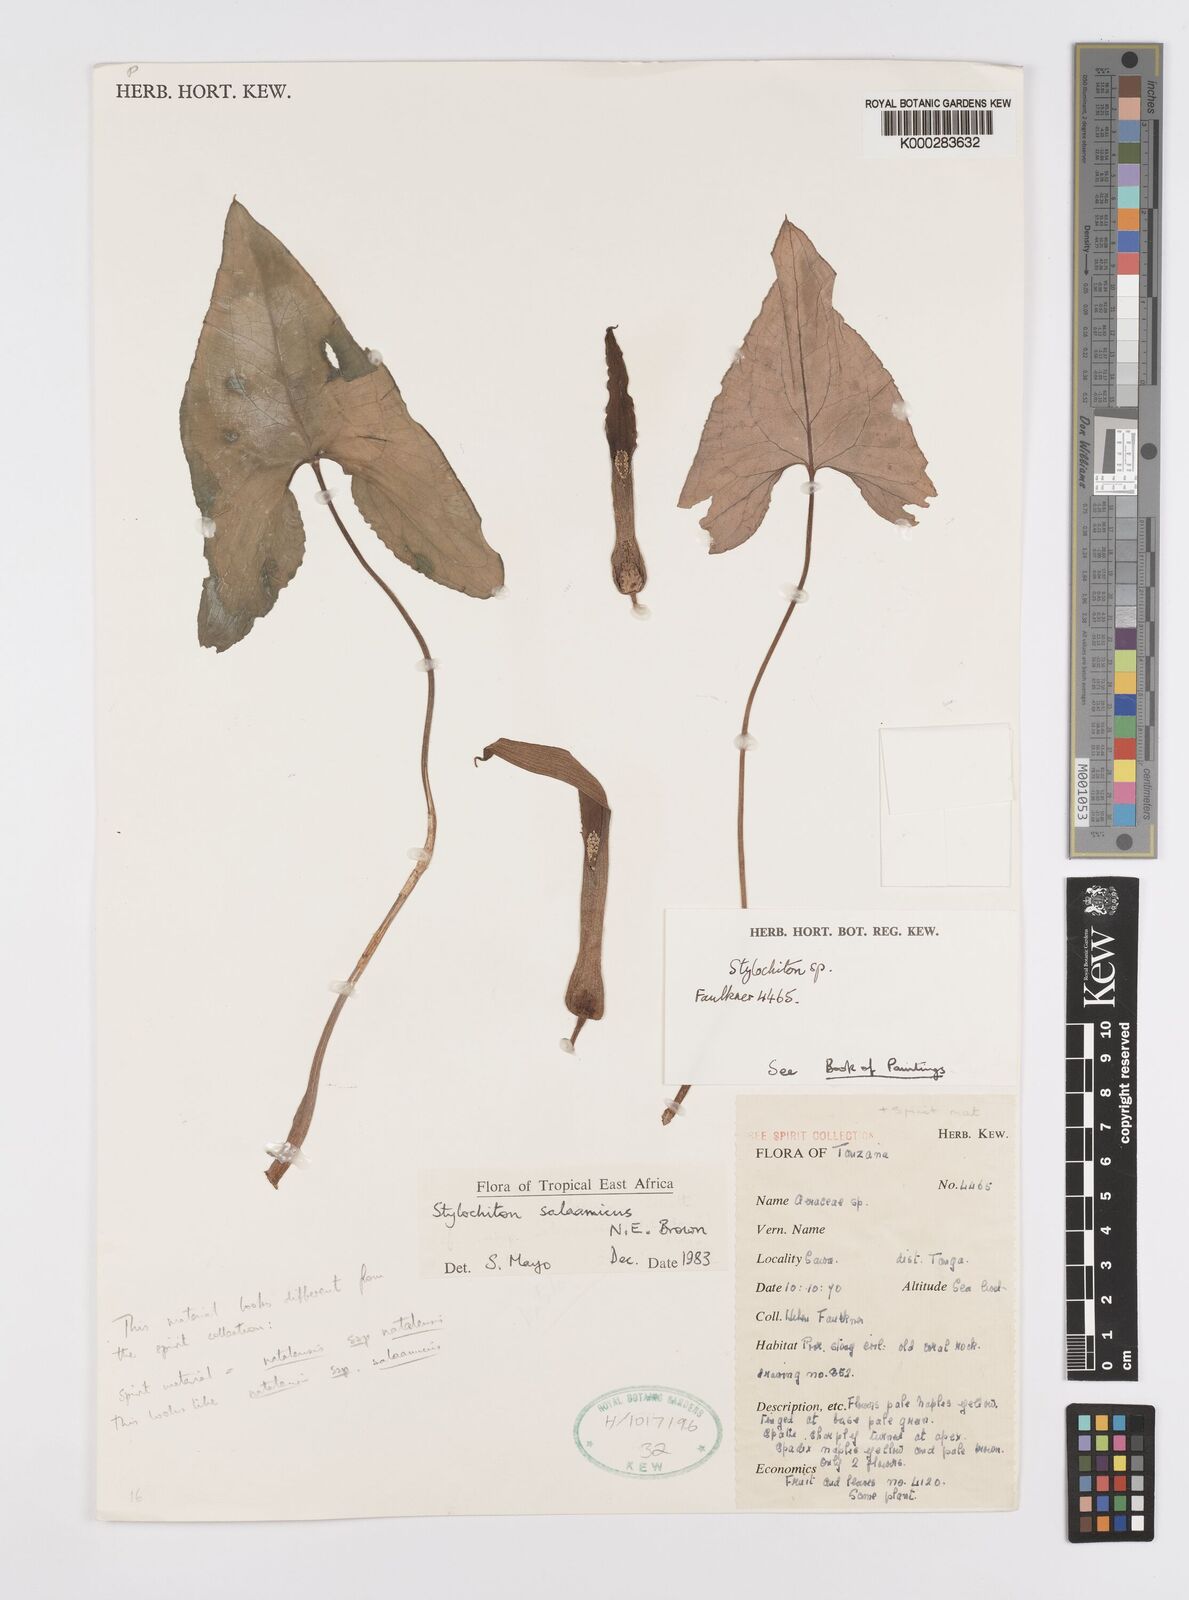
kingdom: Plantae
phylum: Tracheophyta
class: Liliopsida
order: Alismatales
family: Araceae
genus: Stylochaeton
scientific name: Stylochaeton salaamicum
